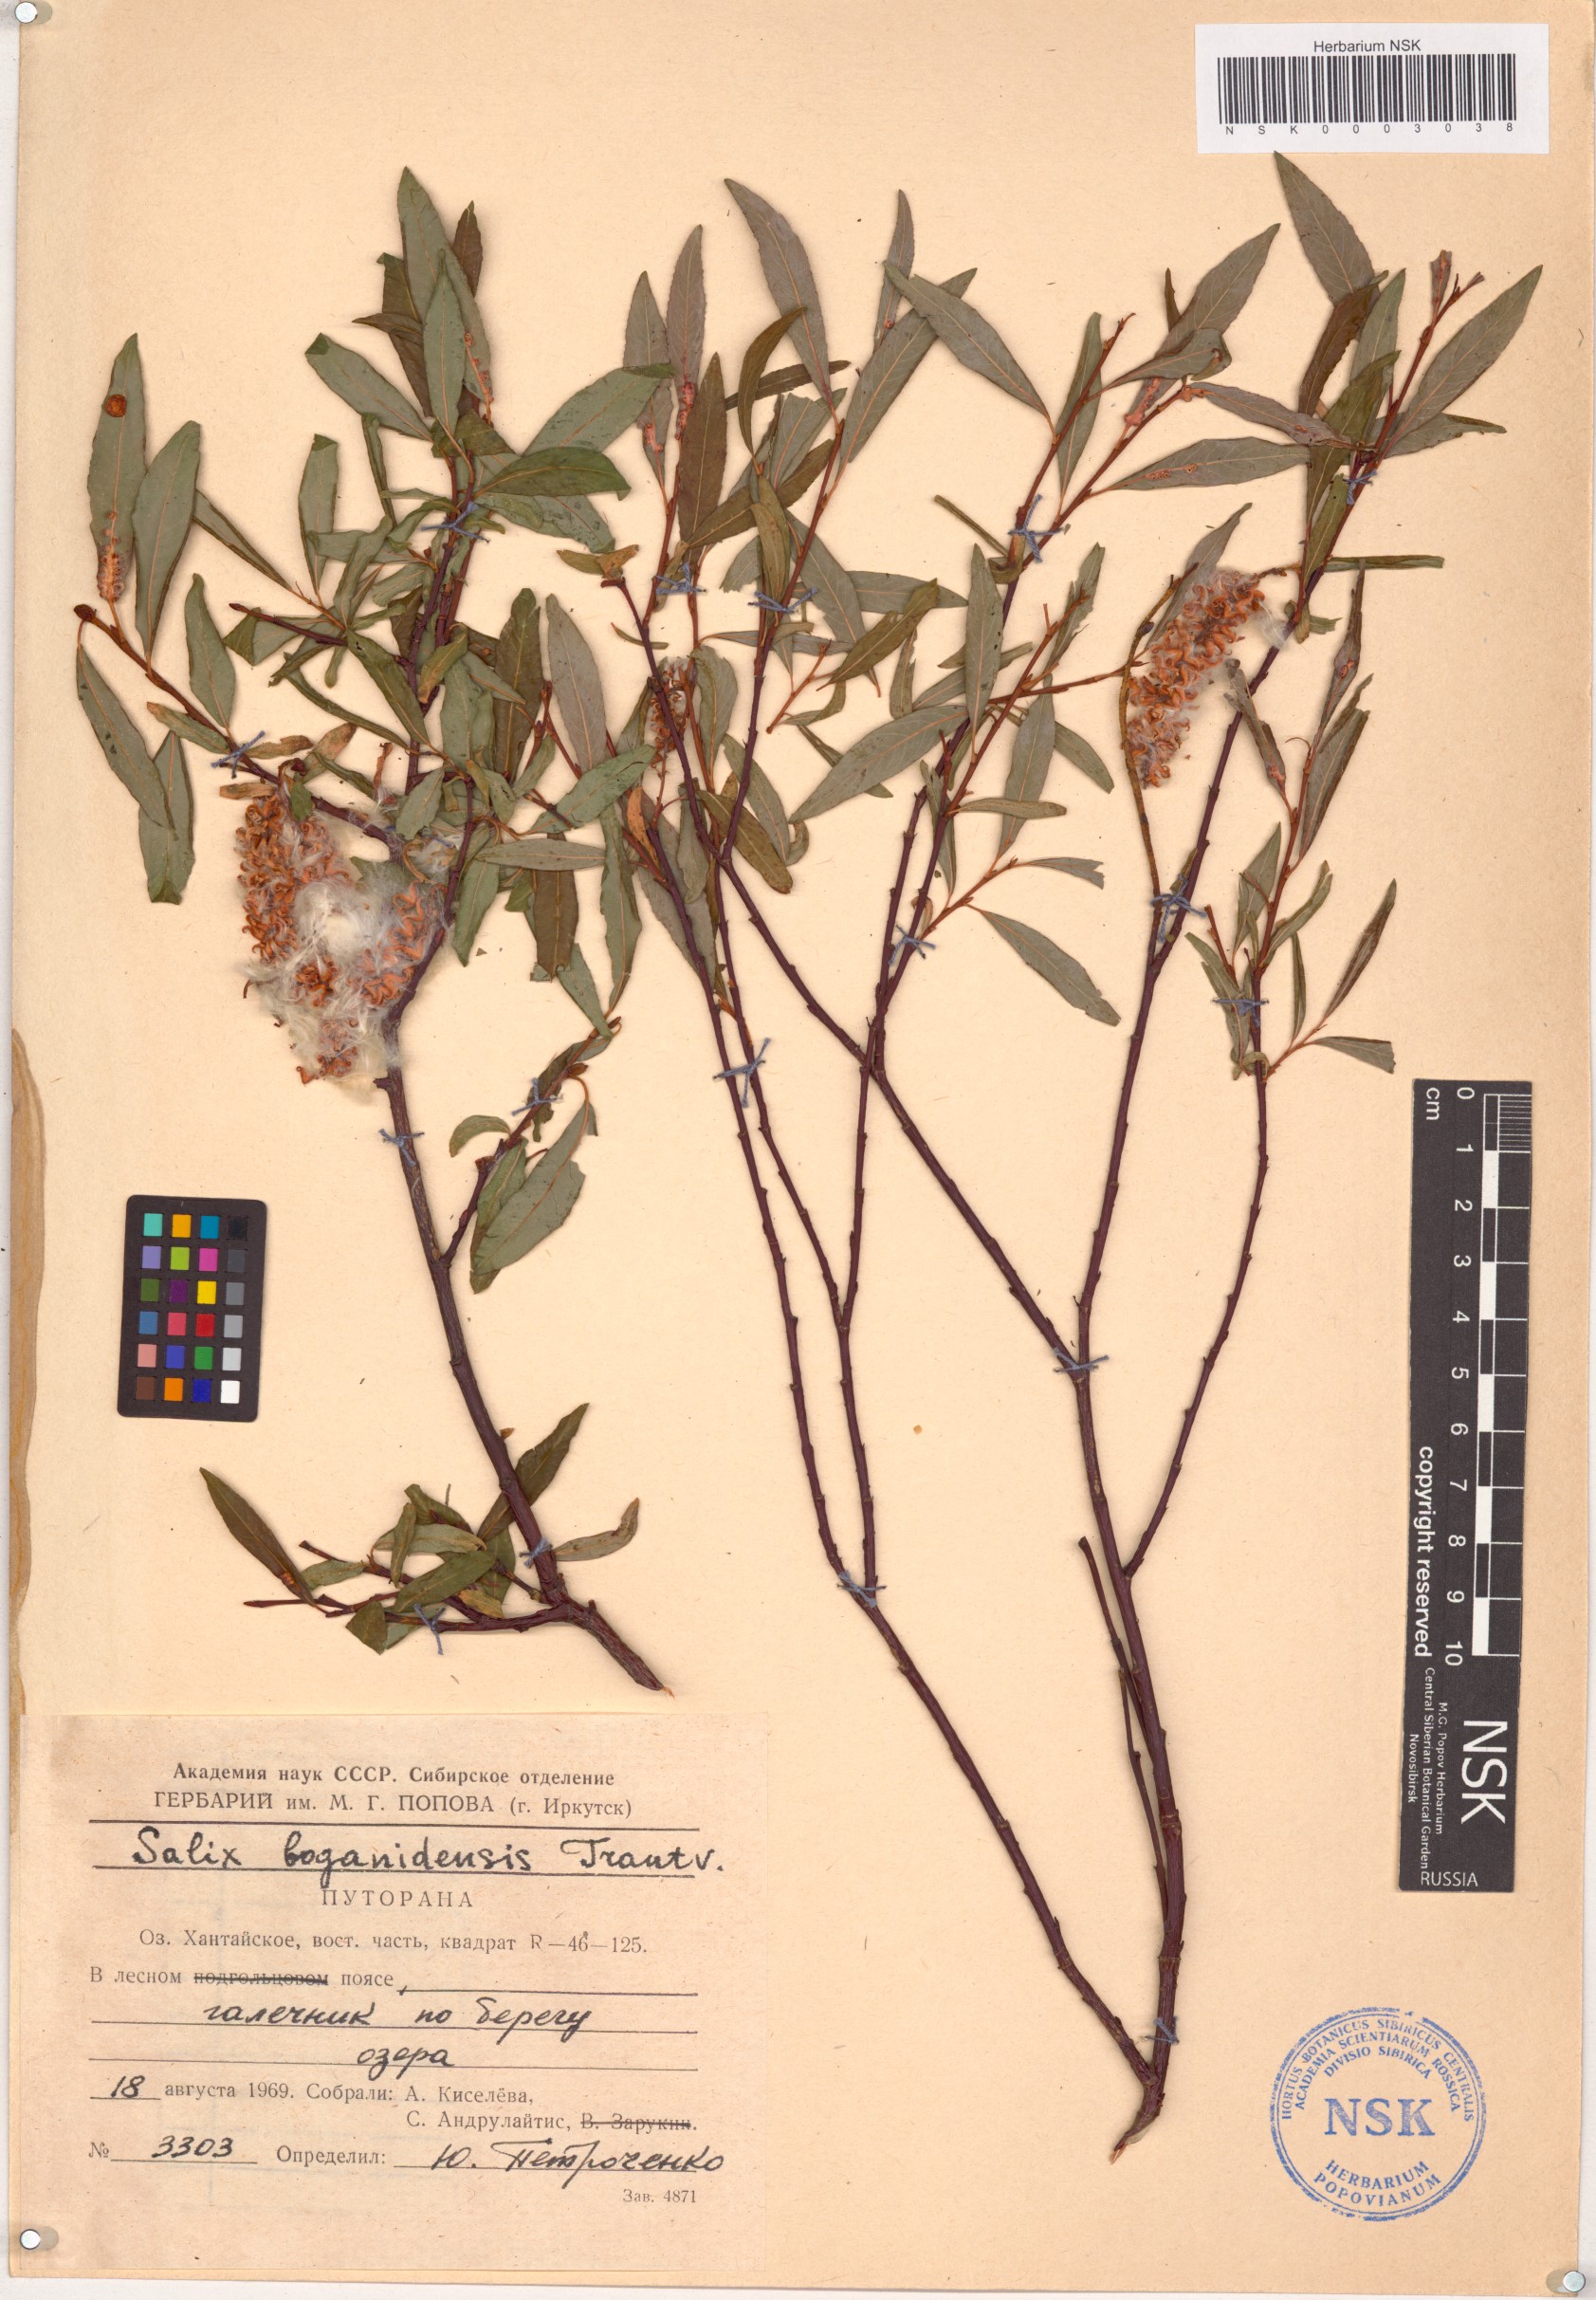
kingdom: Plantae
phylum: Tracheophyta
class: Magnoliopsida
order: Malpighiales
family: Salicaceae
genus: Salix
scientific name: Salix boganidensis
